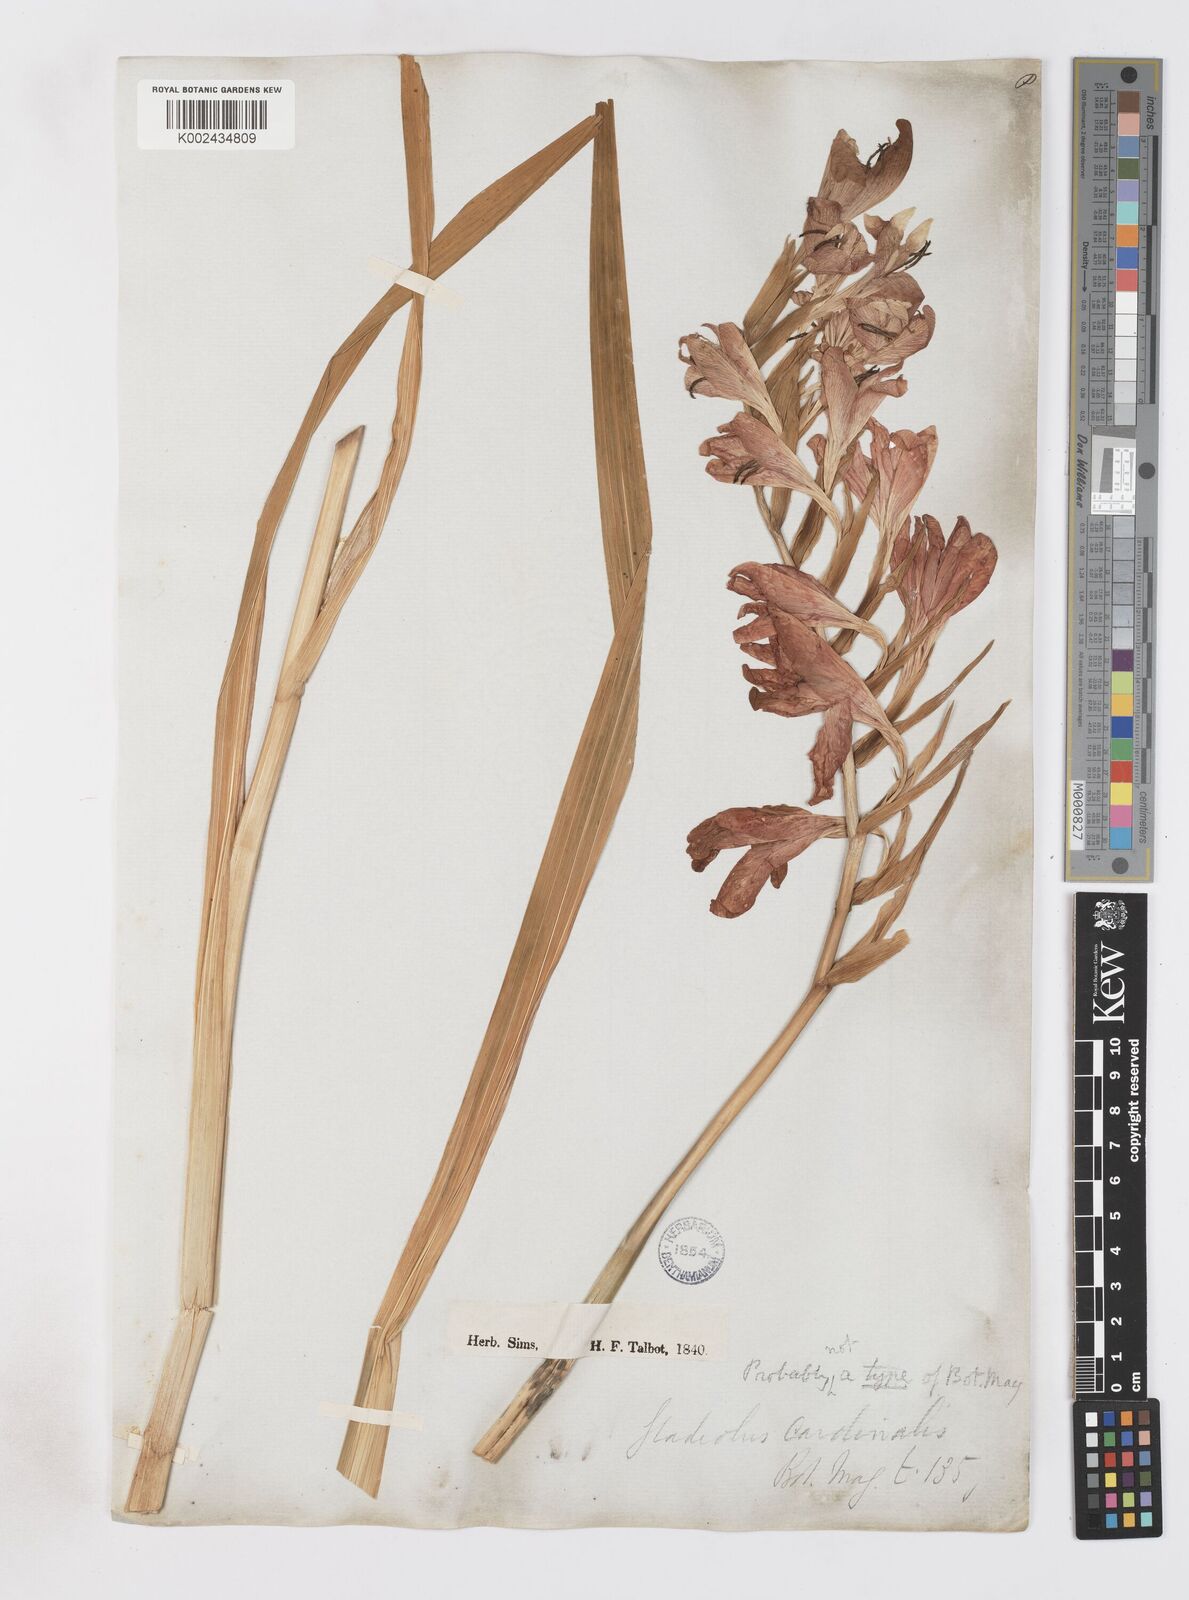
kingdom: Plantae
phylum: Tracheophyta
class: Liliopsida
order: Asparagales
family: Iridaceae
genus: Gladiolus
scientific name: Gladiolus cardinalis
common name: New year-lily
